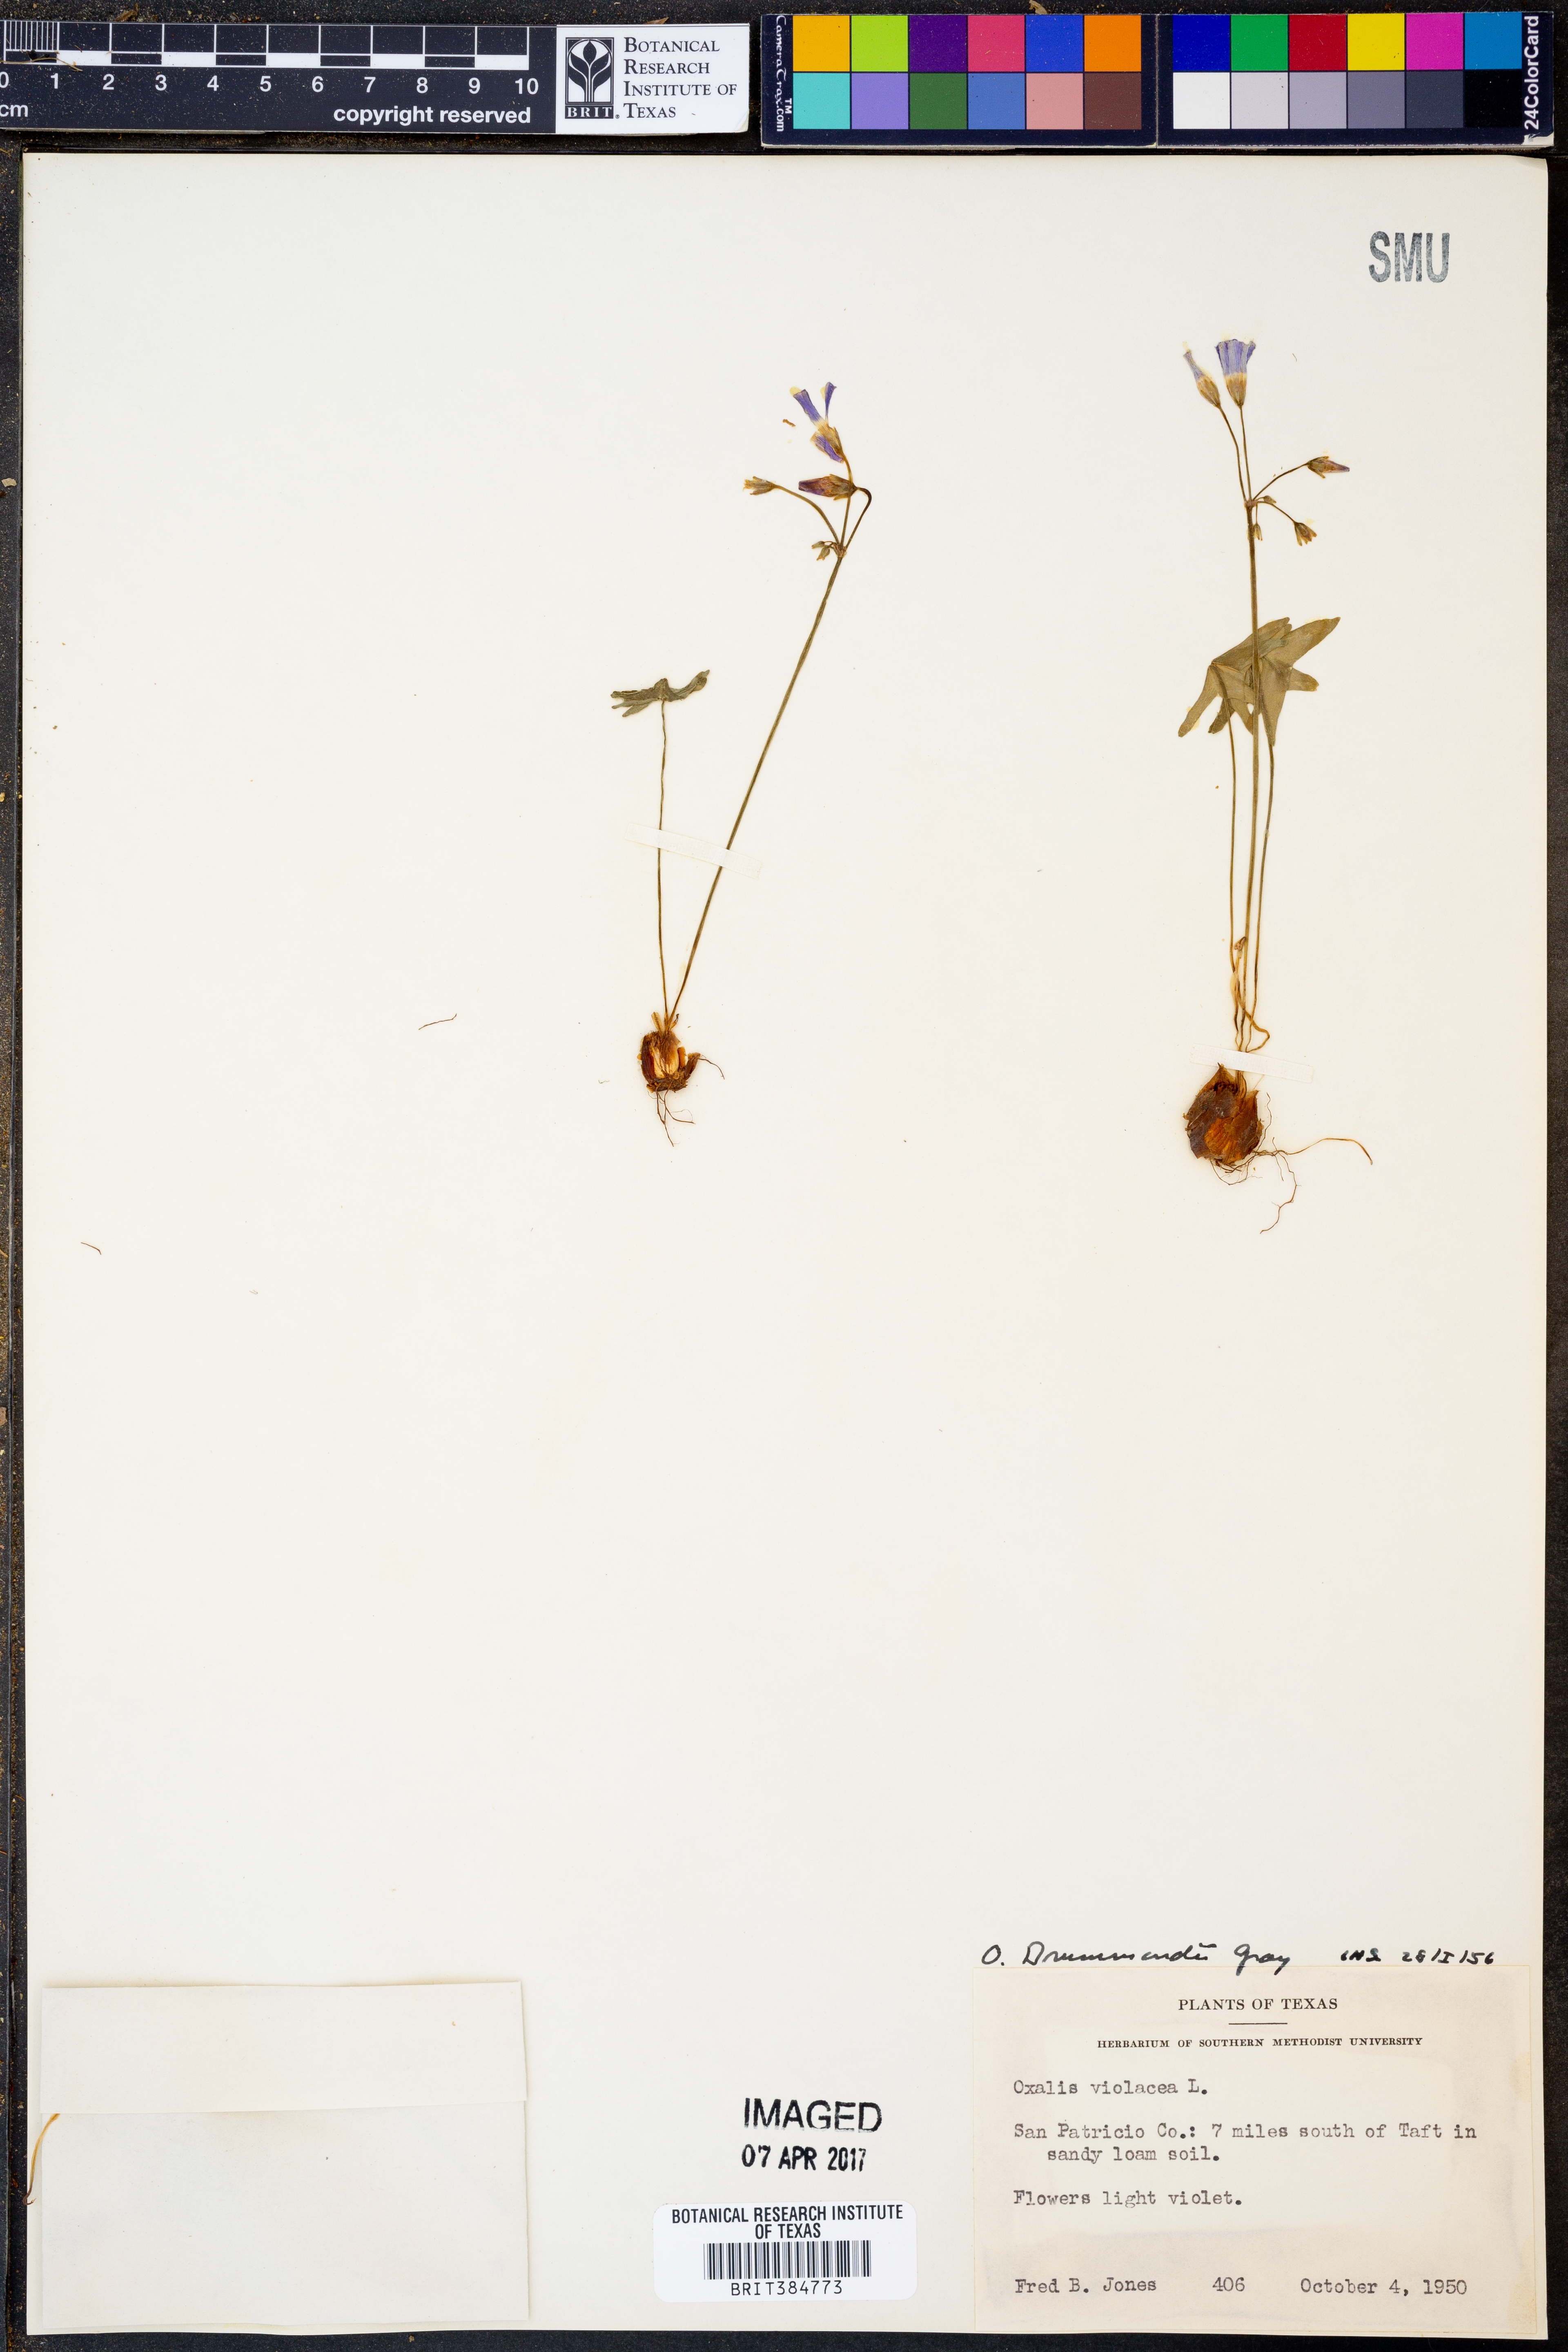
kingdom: Plantae
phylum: Tracheophyta
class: Magnoliopsida
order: Oxalidales
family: Oxalidaceae
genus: Oxalis
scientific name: Oxalis drummondii
